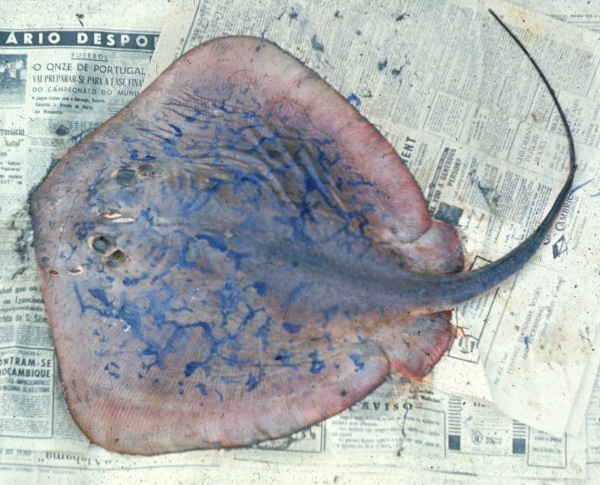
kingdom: Animalia
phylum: Chordata
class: Elasmobranchii
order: Myliobatiformes
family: Dasyatidae
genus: Dasyatis
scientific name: Dasyatis chrysonota
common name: Blue stingray
